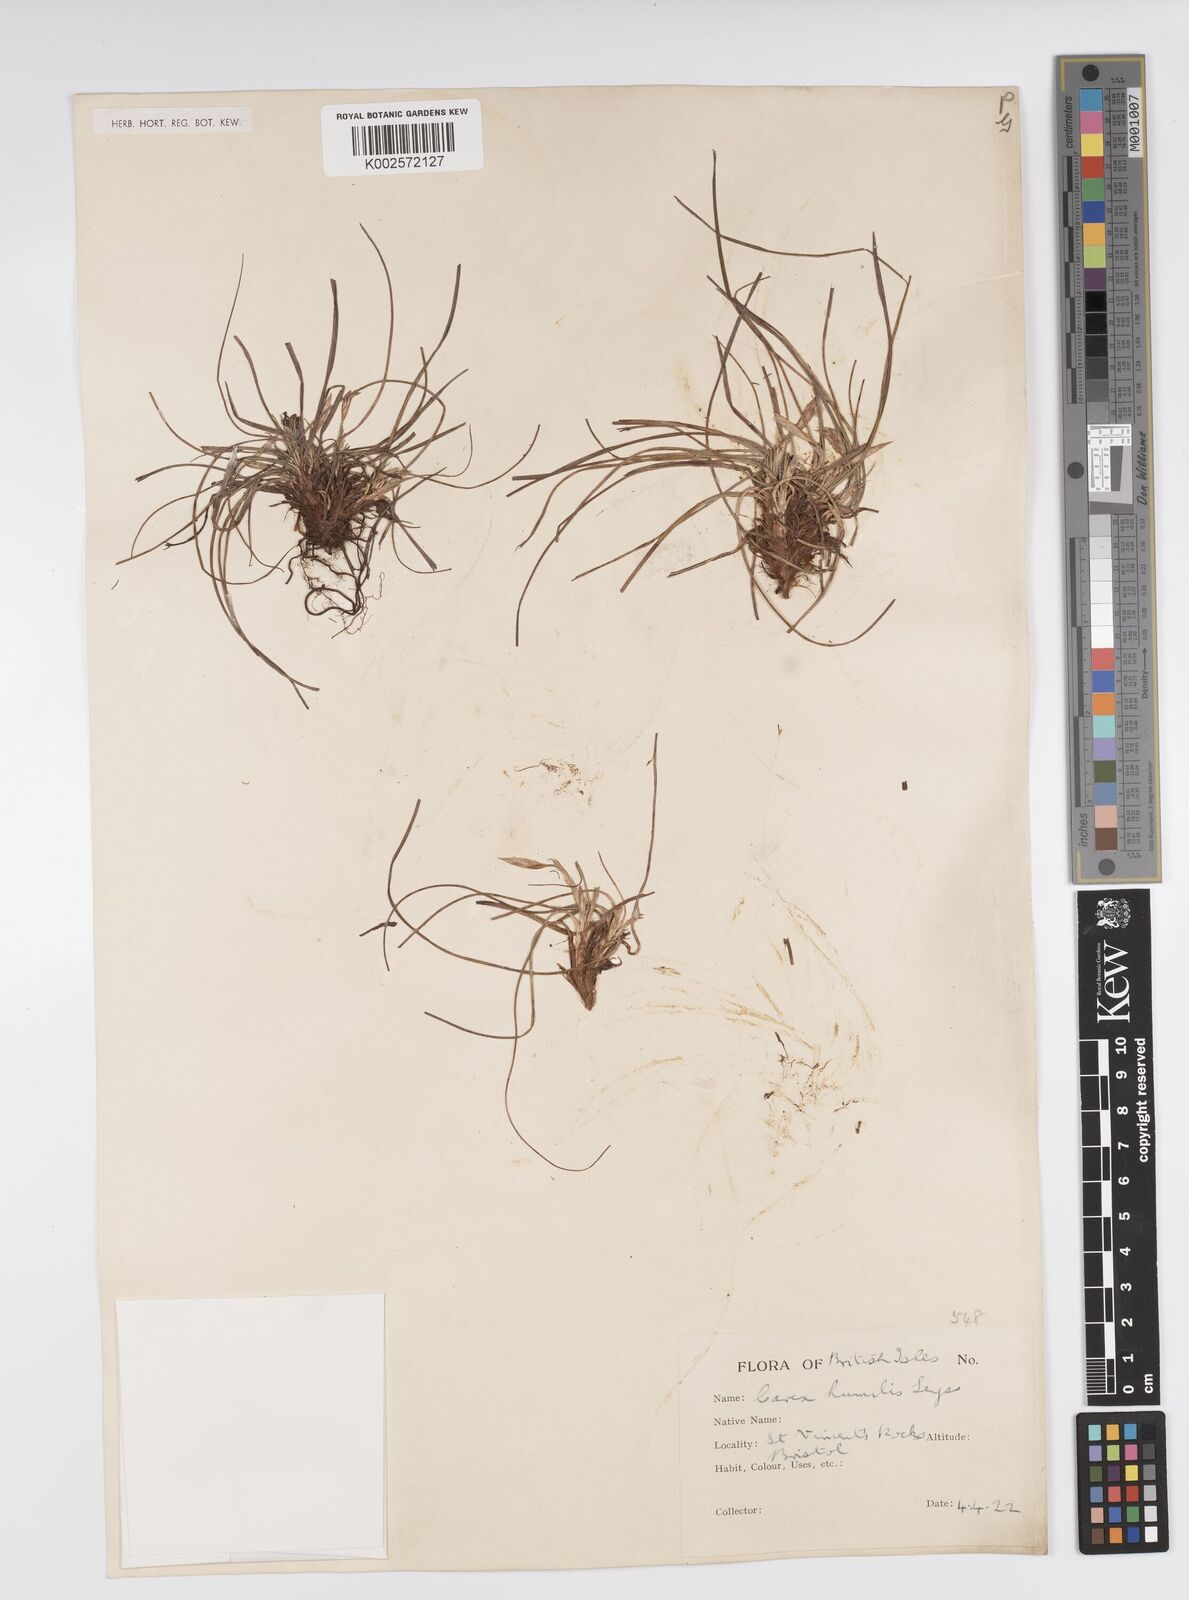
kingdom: Plantae
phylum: Tracheophyta
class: Liliopsida
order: Poales
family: Cyperaceae
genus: Carex
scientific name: Carex humilis
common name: Dwarf sedge
